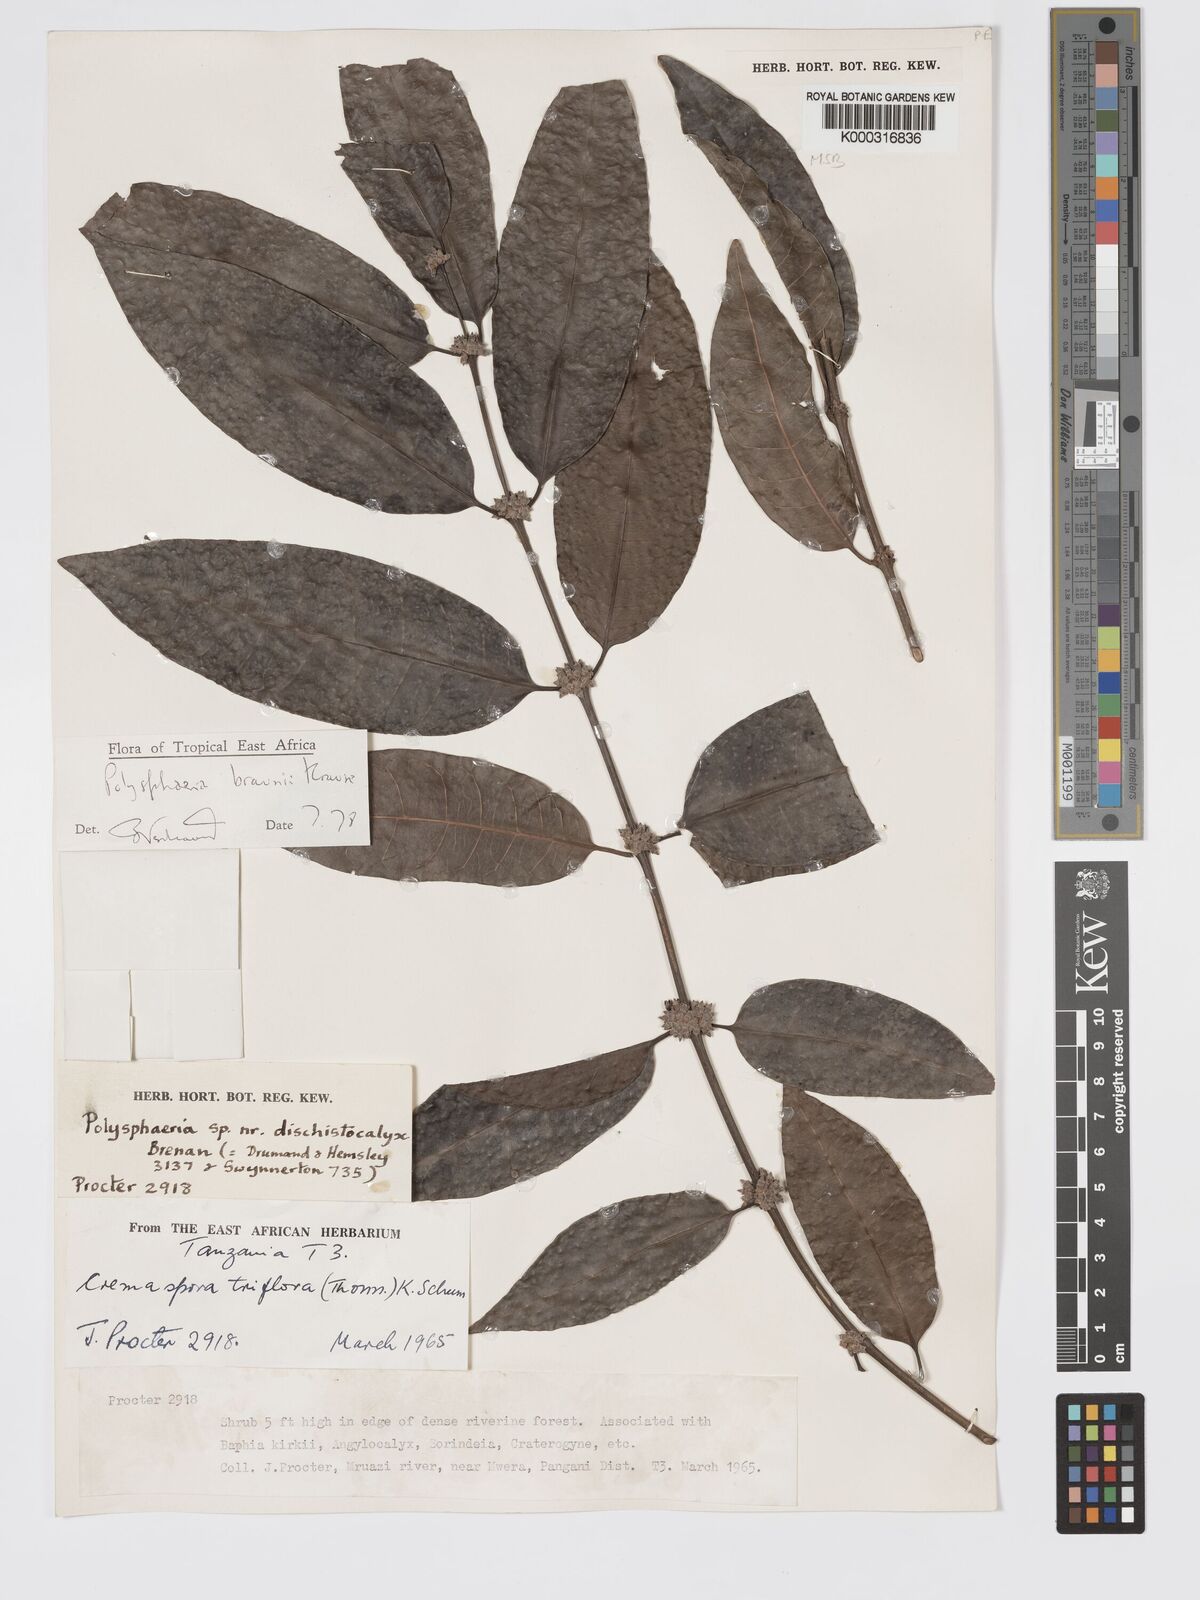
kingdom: Plantae
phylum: Tracheophyta
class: Magnoliopsida
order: Gentianales
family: Rubiaceae
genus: Polysphaeria
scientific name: Polysphaeria braunii
